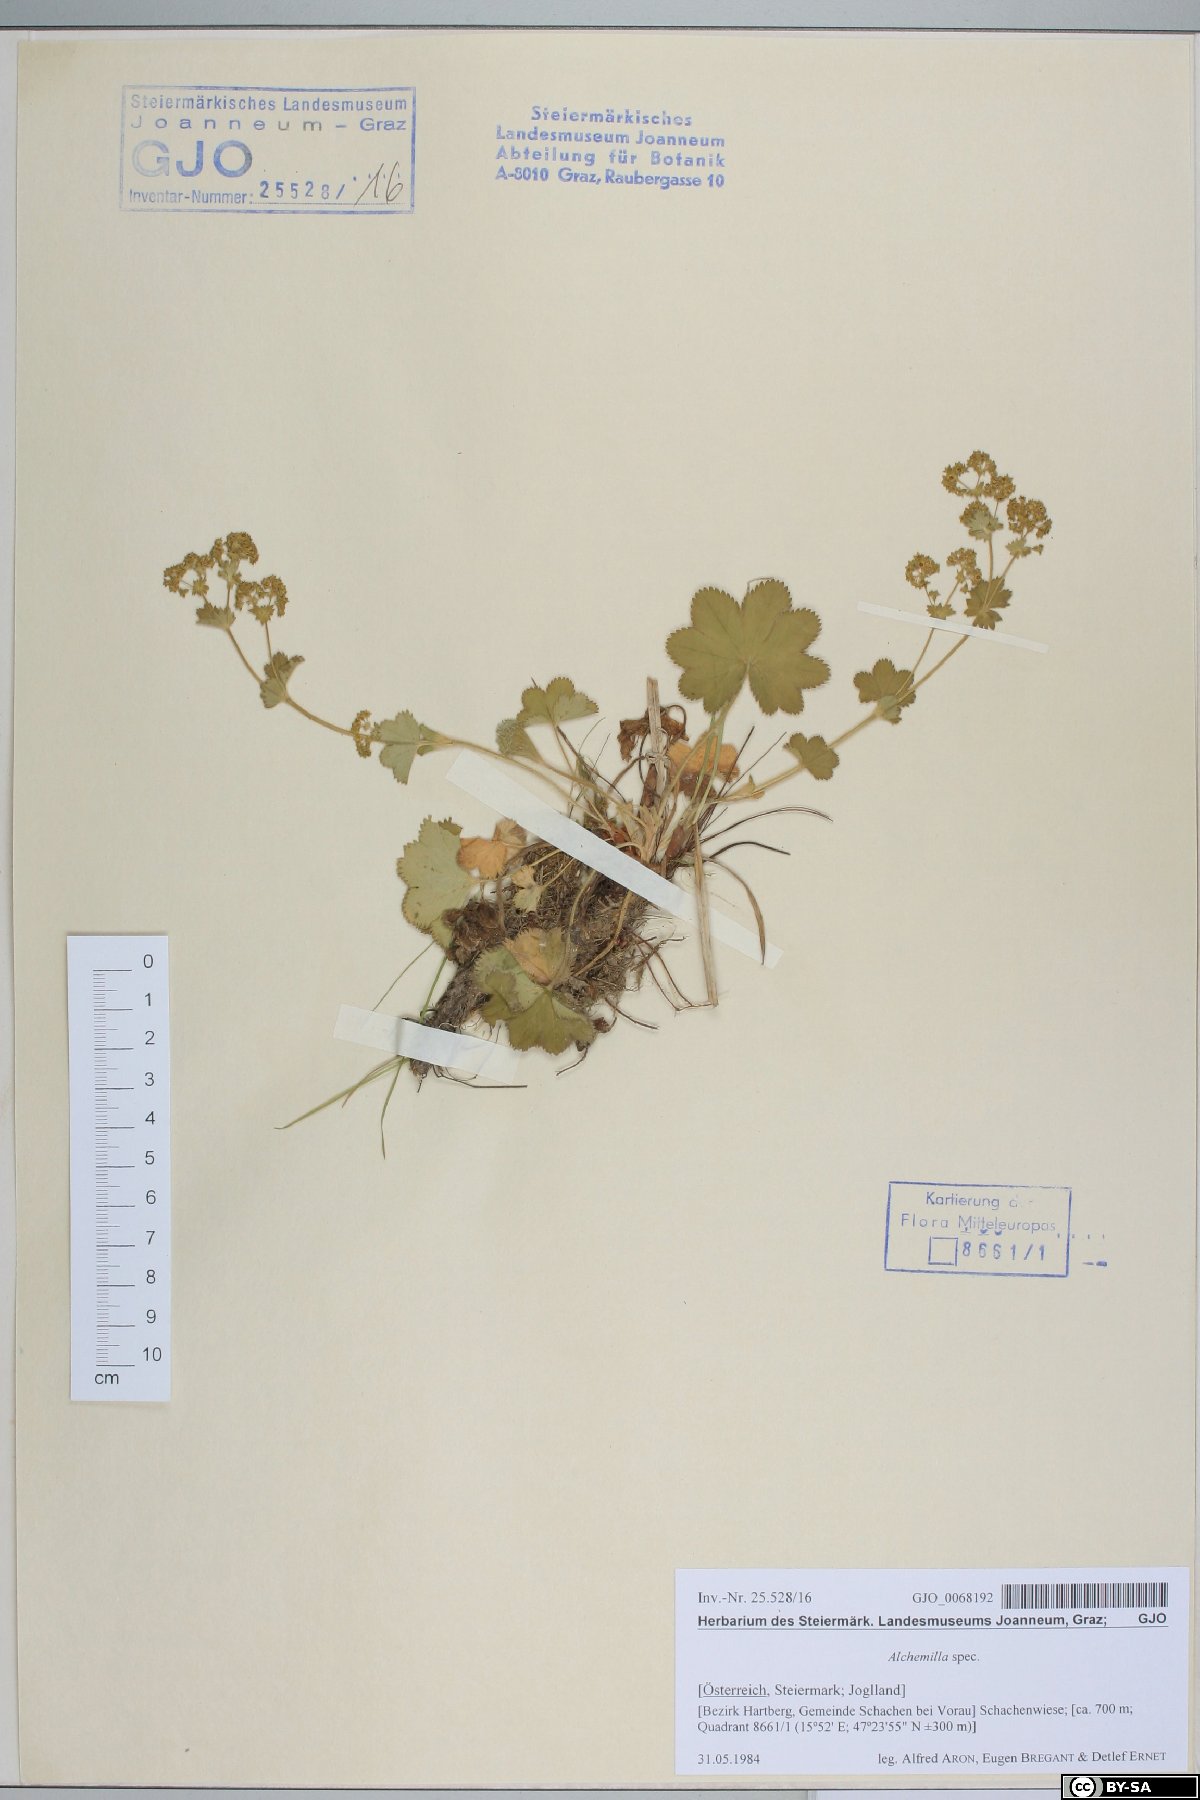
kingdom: Plantae
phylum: Tracheophyta
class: Magnoliopsida
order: Rosales
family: Rosaceae
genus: Alchemilla
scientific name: Alchemilla
